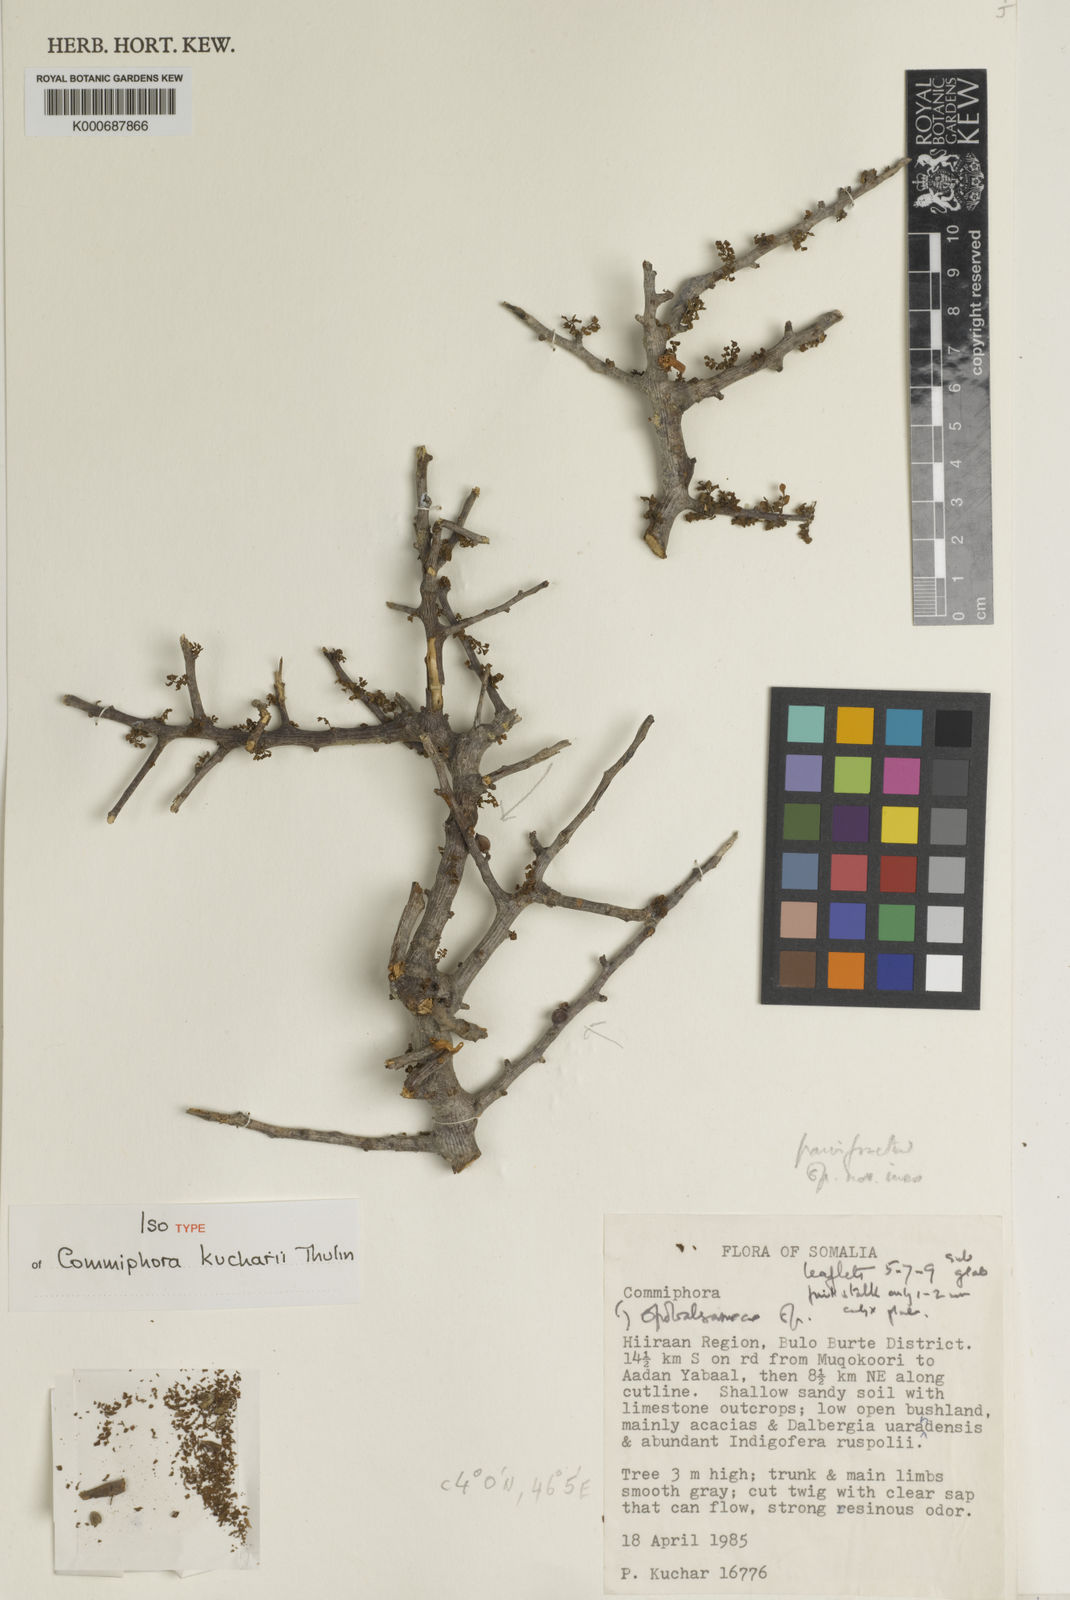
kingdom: Plantae
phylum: Tracheophyta
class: Magnoliopsida
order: Sapindales
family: Burseraceae
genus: Commiphora
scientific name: Commiphora kucharii
